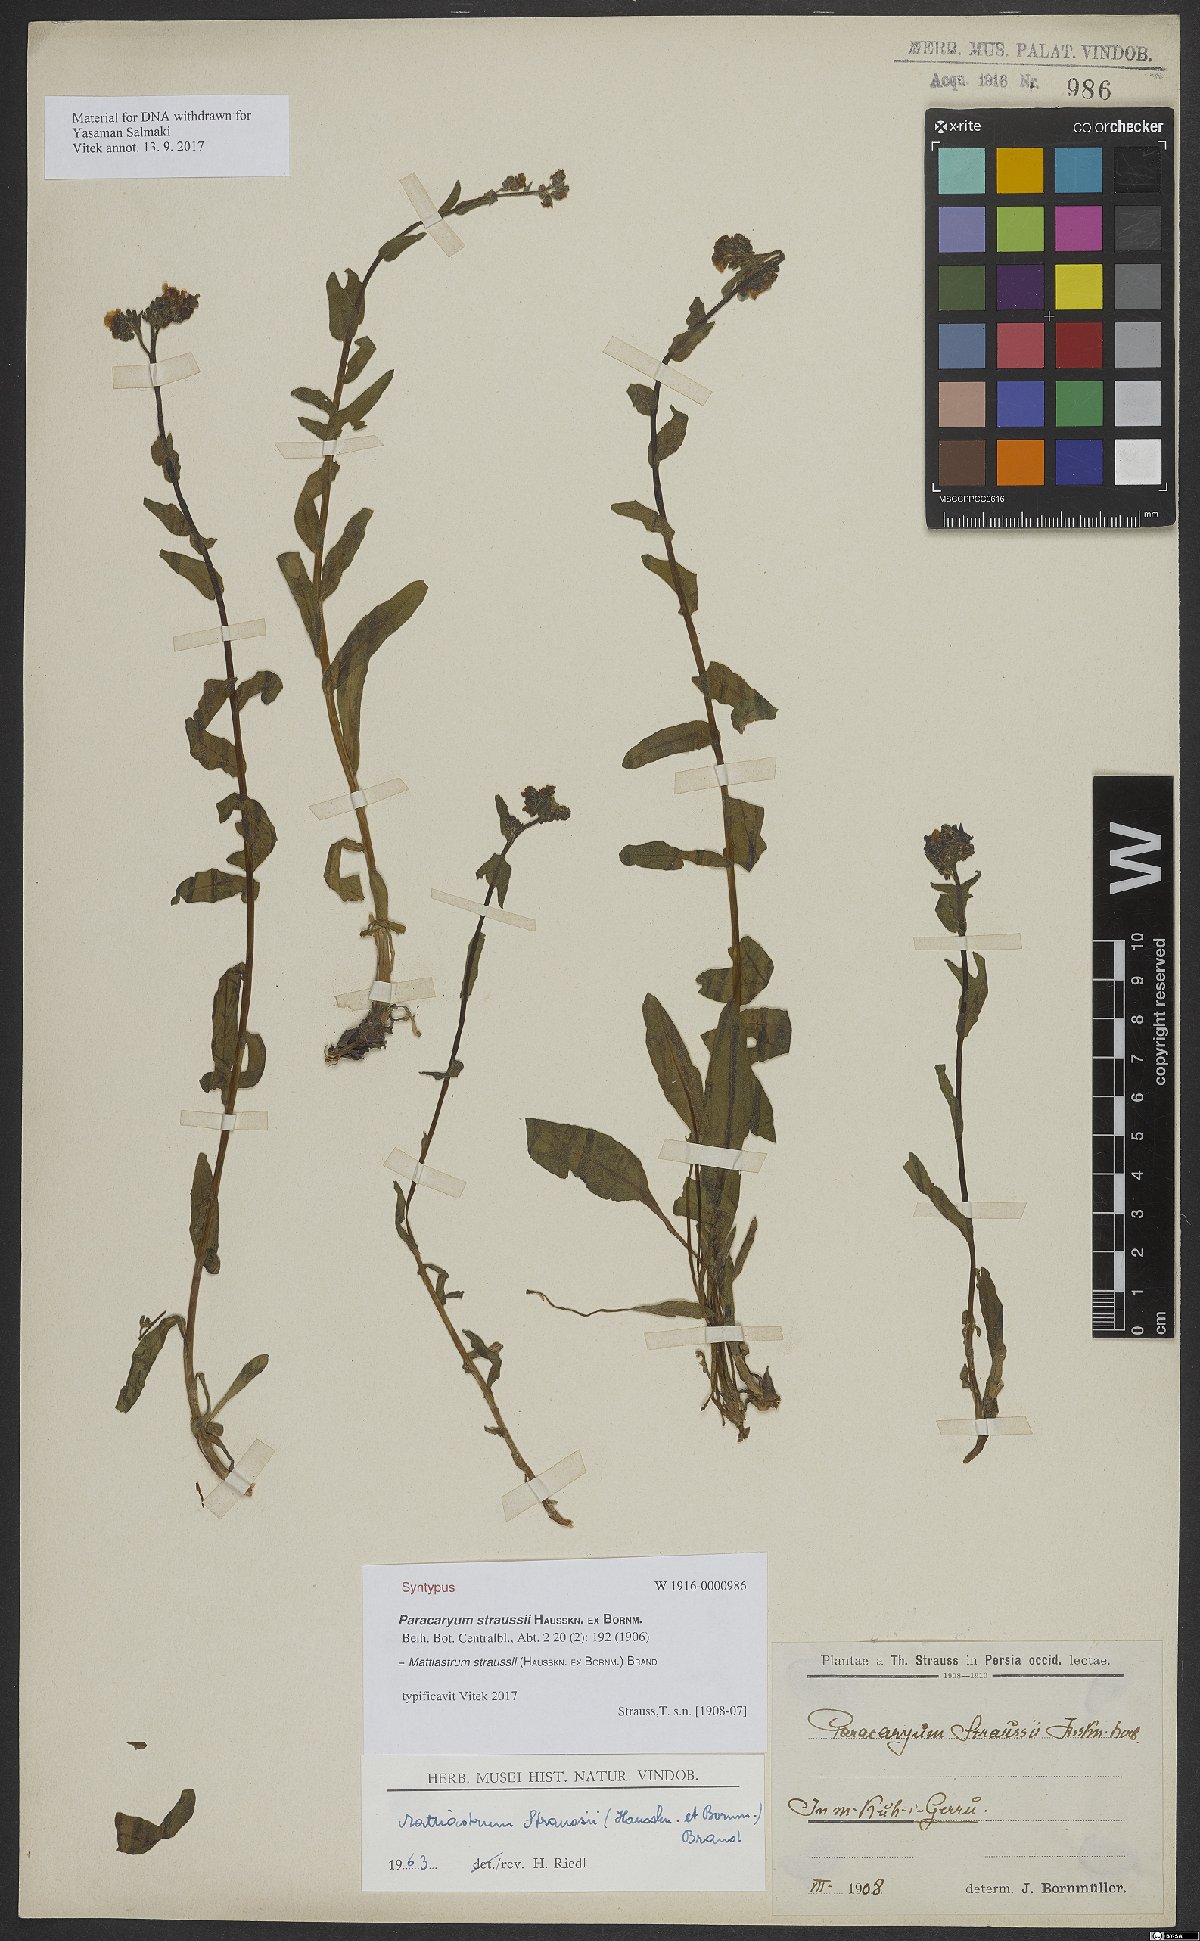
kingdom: Plantae
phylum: Tracheophyta
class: Magnoliopsida
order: Boraginales
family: Boraginaceae
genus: Paracaryum
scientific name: Paracaryum modestum
